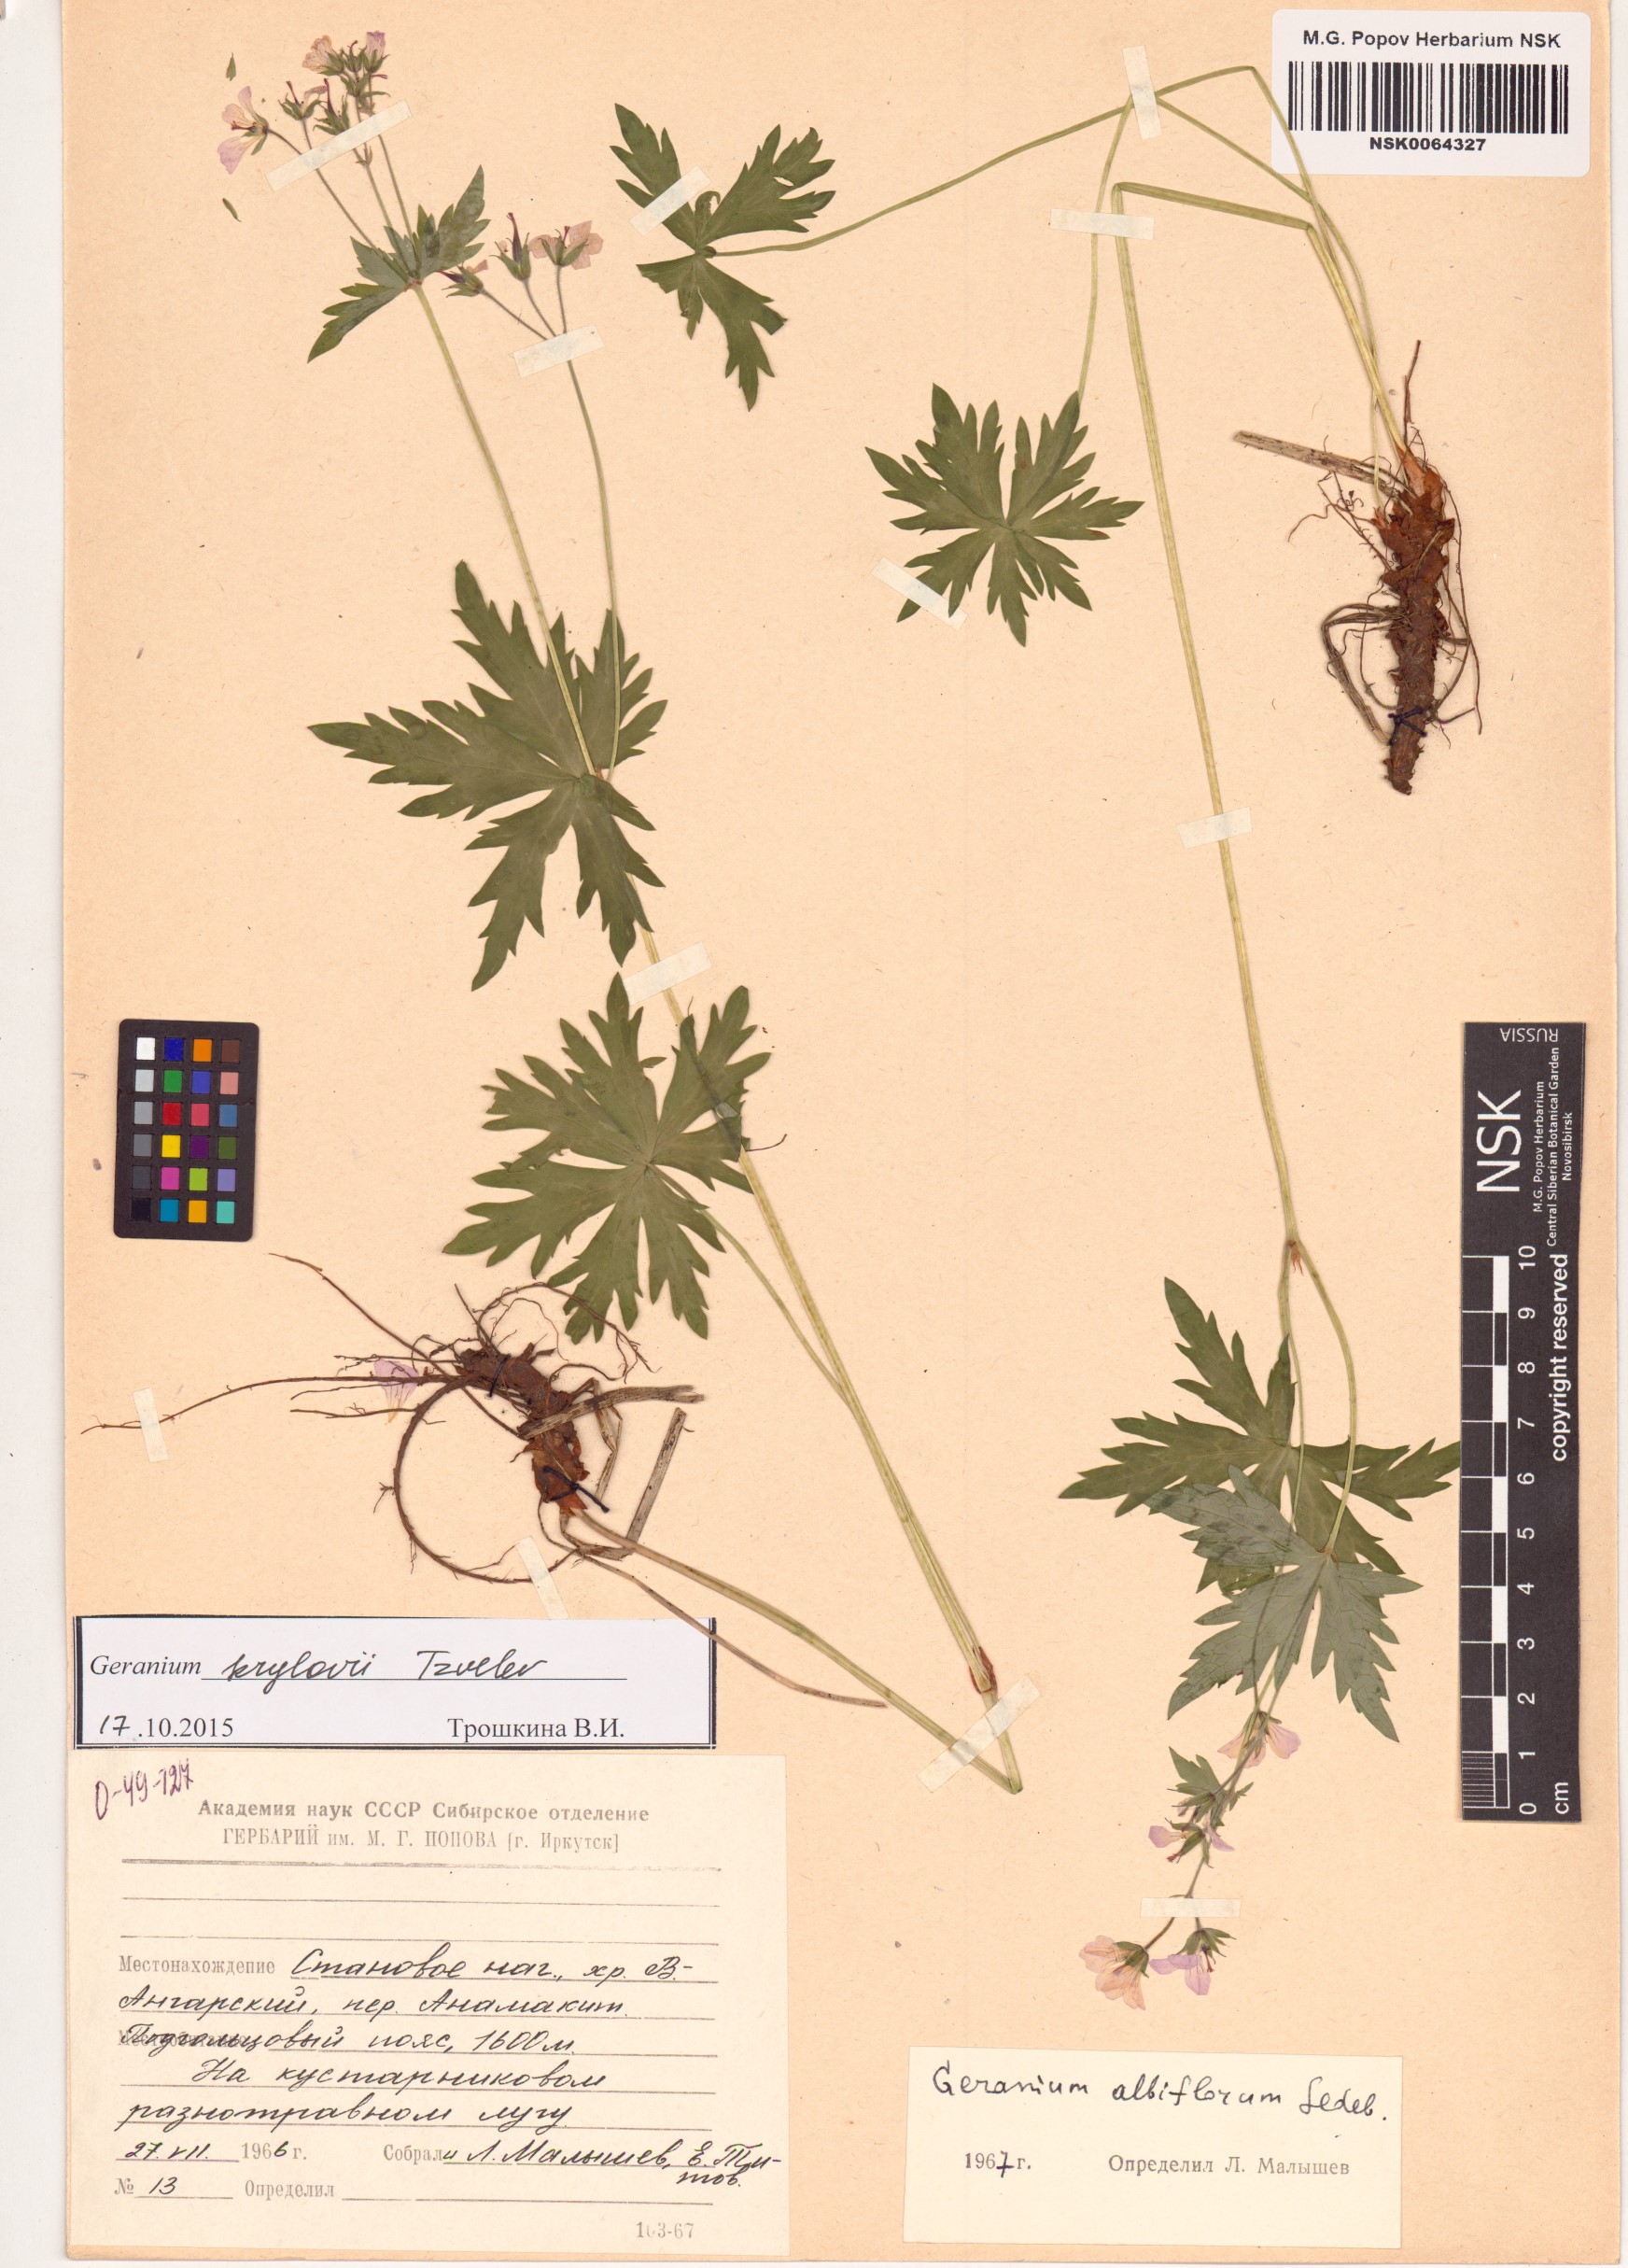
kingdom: Plantae
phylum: Tracheophyta
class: Magnoliopsida
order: Geraniales
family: Geraniaceae
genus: Geranium
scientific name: Geranium sylvaticum
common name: Wood crane's-bill
